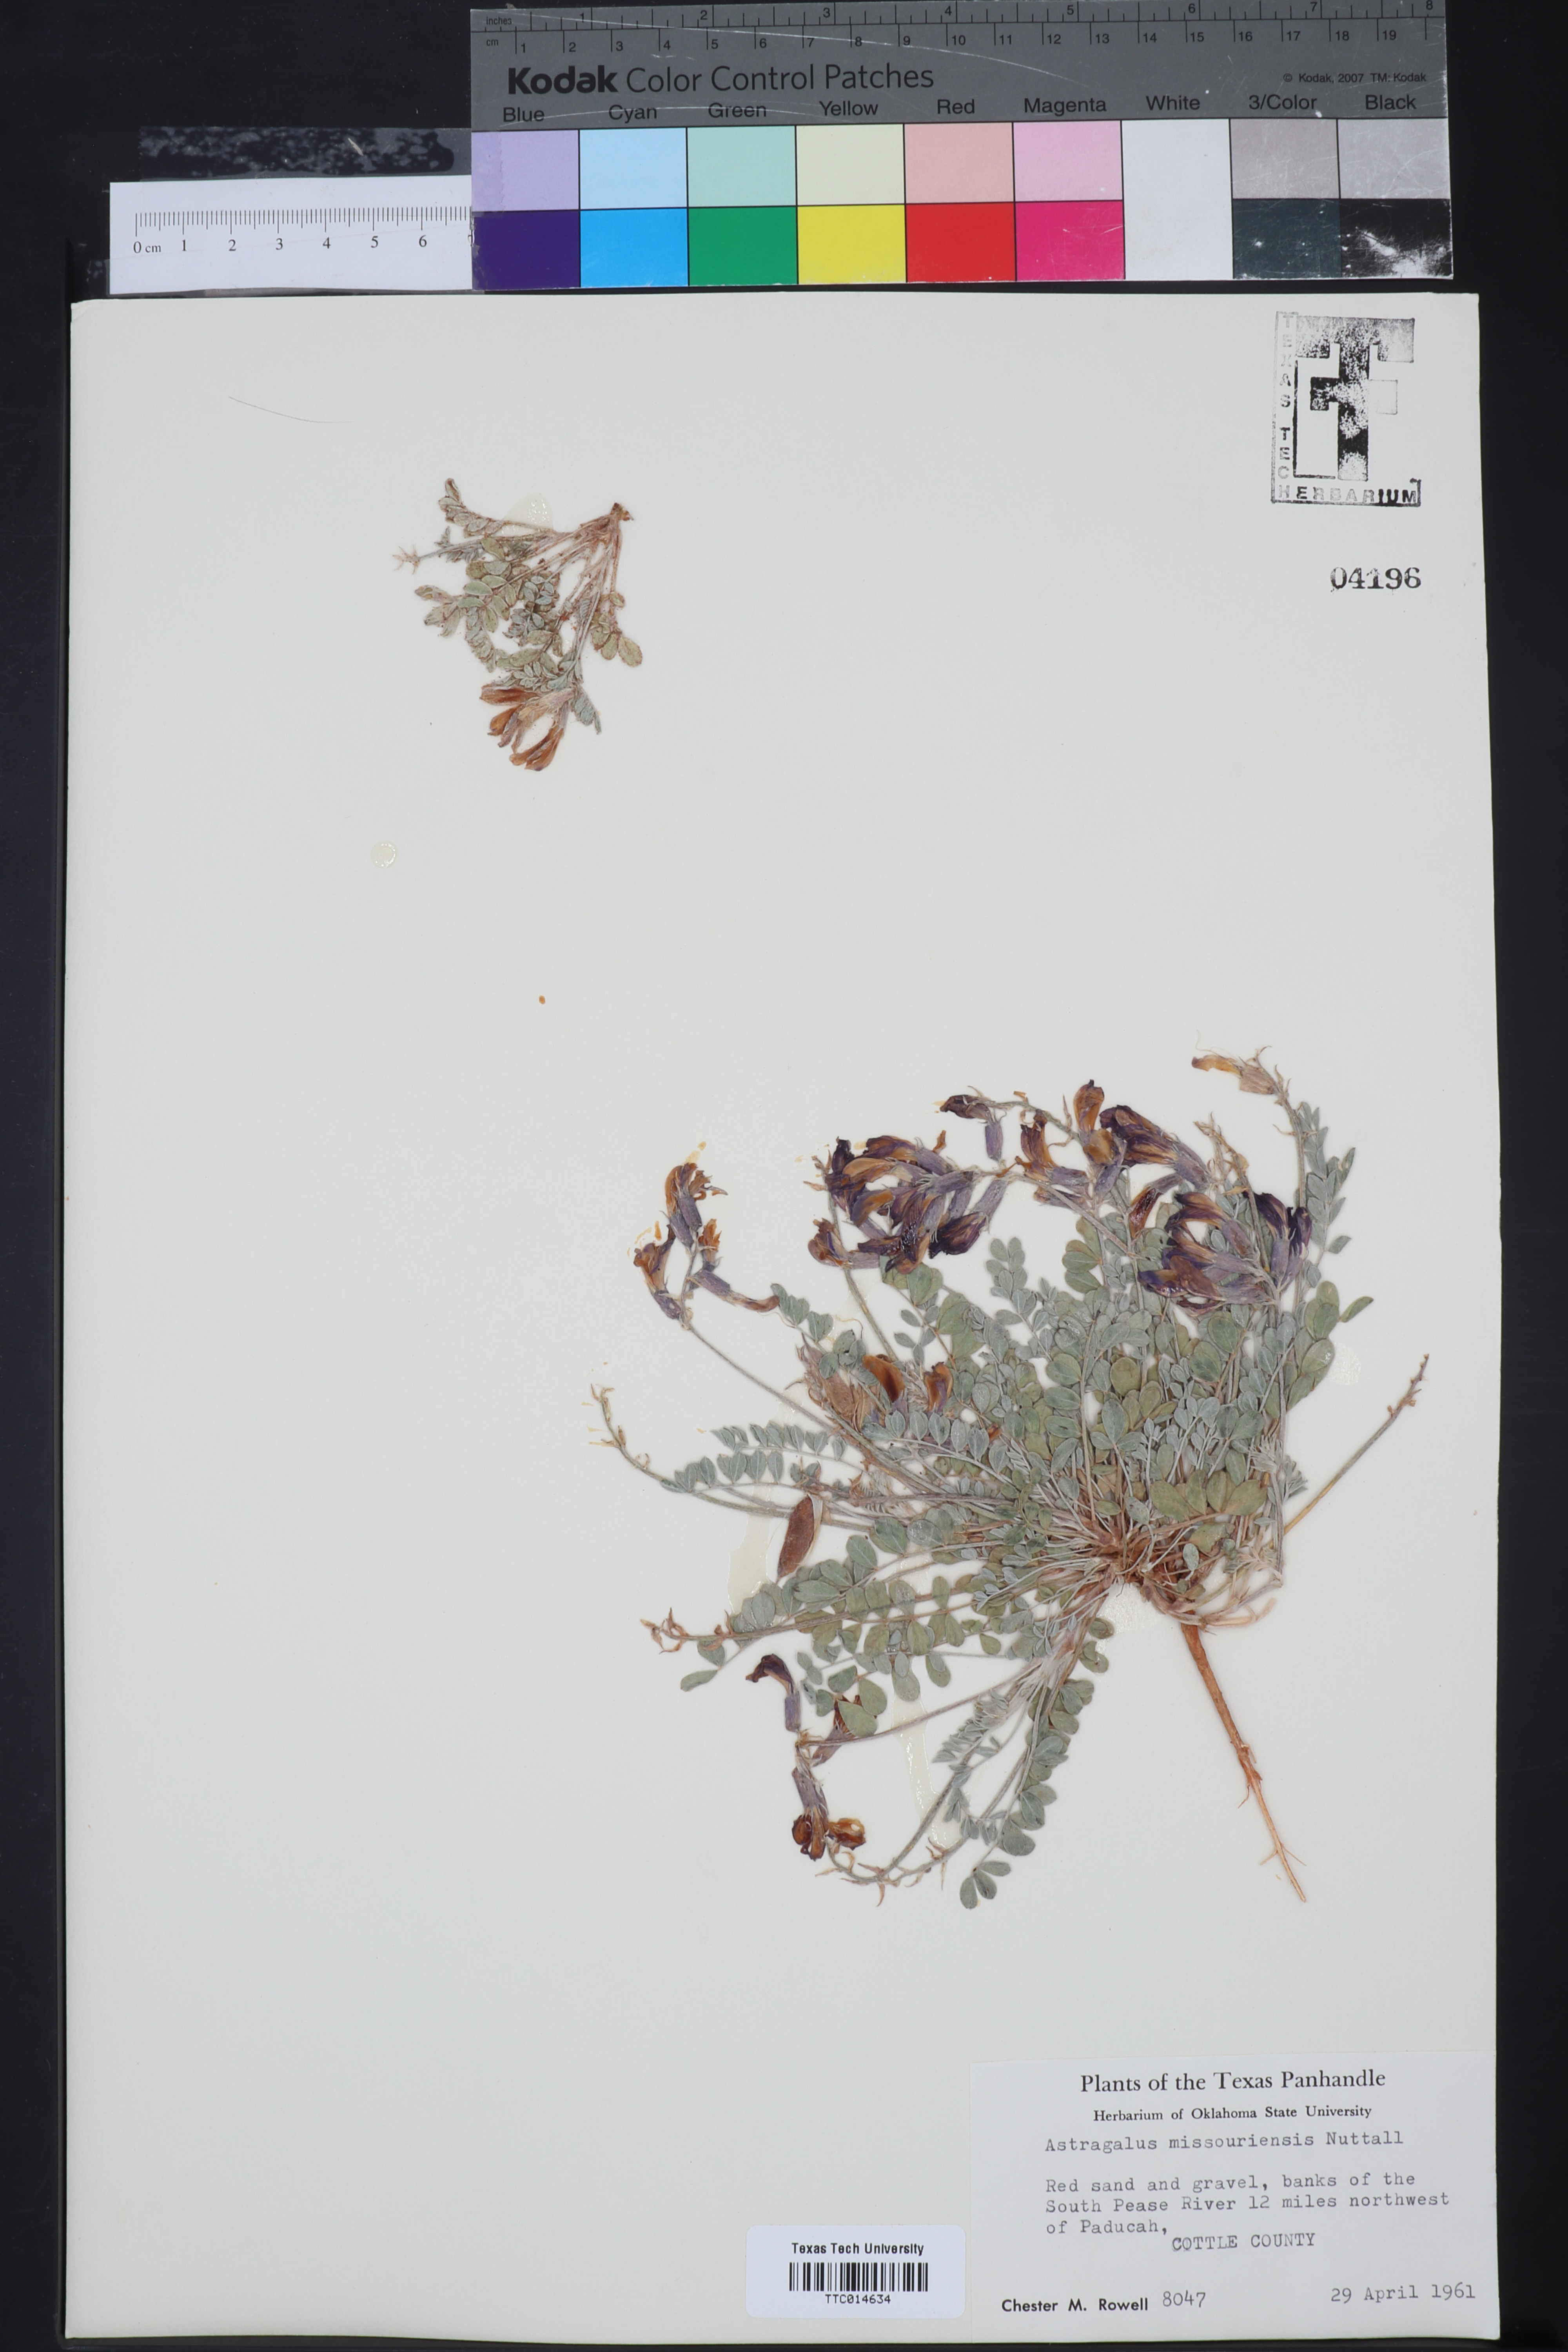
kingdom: Plantae
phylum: Tracheophyta
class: Magnoliopsida
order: Fabales
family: Fabaceae
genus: Astragalus
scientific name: Astragalus missouriensis
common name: Missouri milk-vetch
